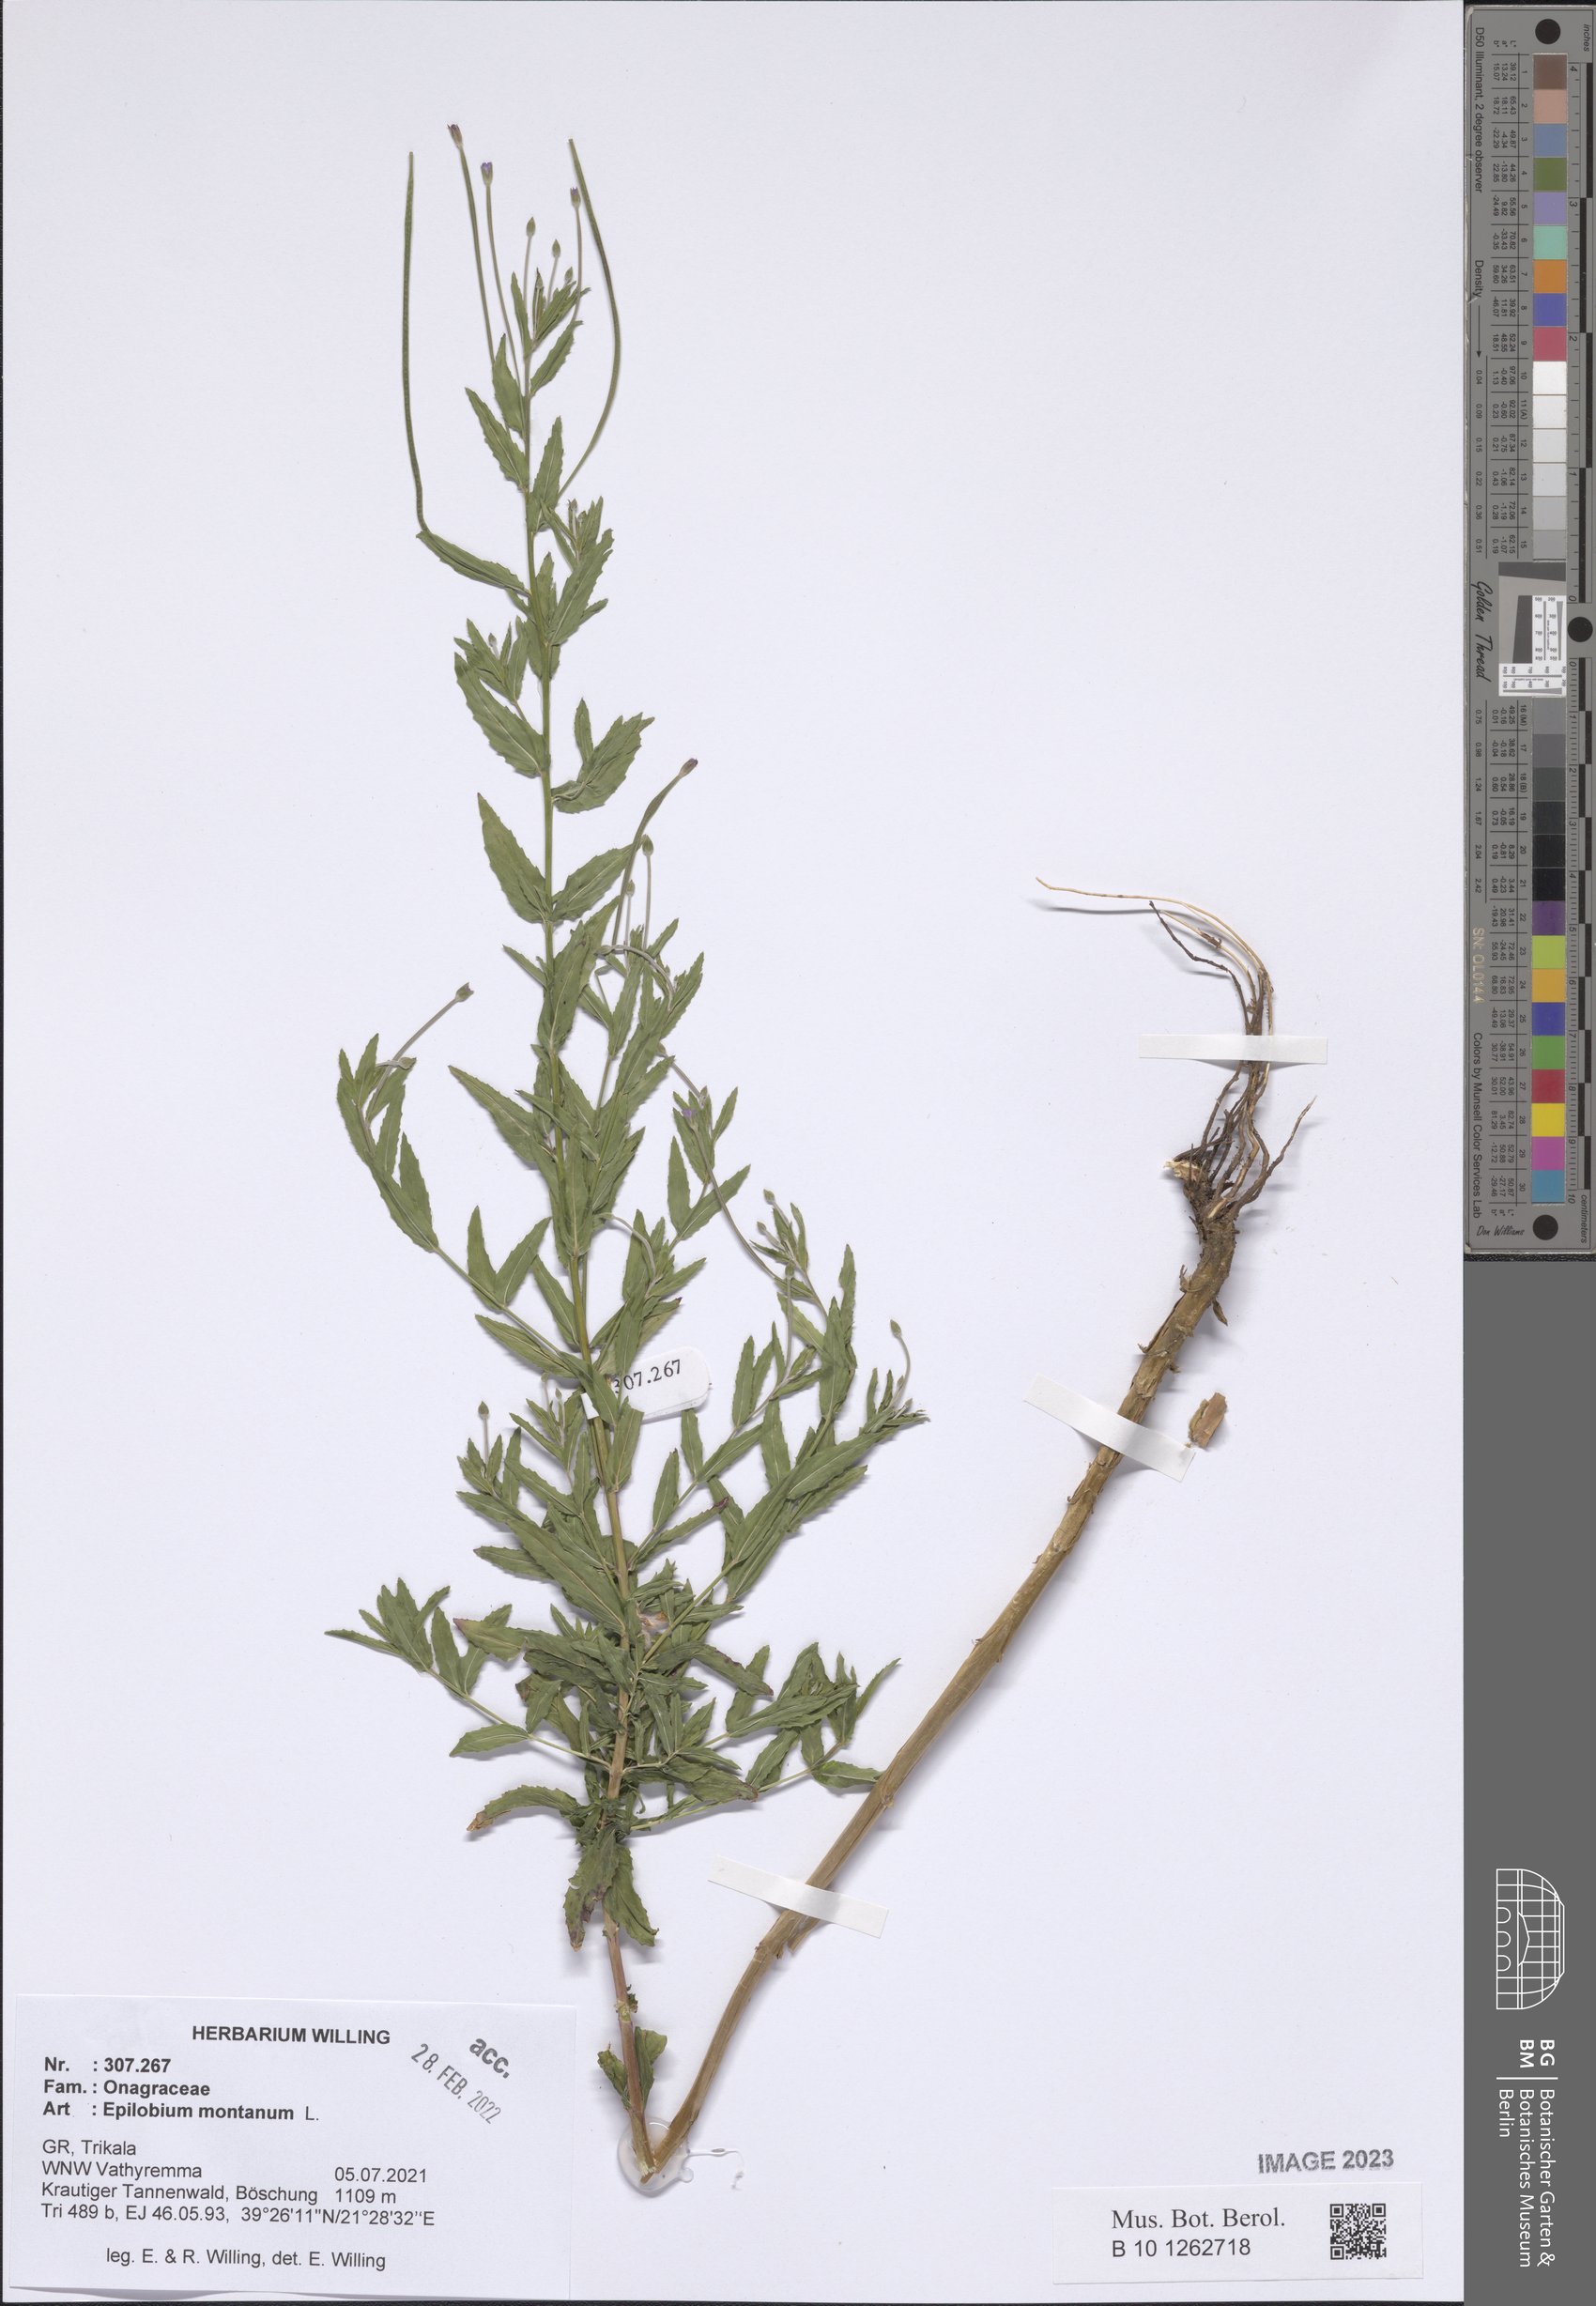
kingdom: Plantae
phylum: Tracheophyta
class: Magnoliopsida
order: Myrtales
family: Onagraceae
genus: Epilobium
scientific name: Epilobium montanum
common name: Broad-leaved willowherb
